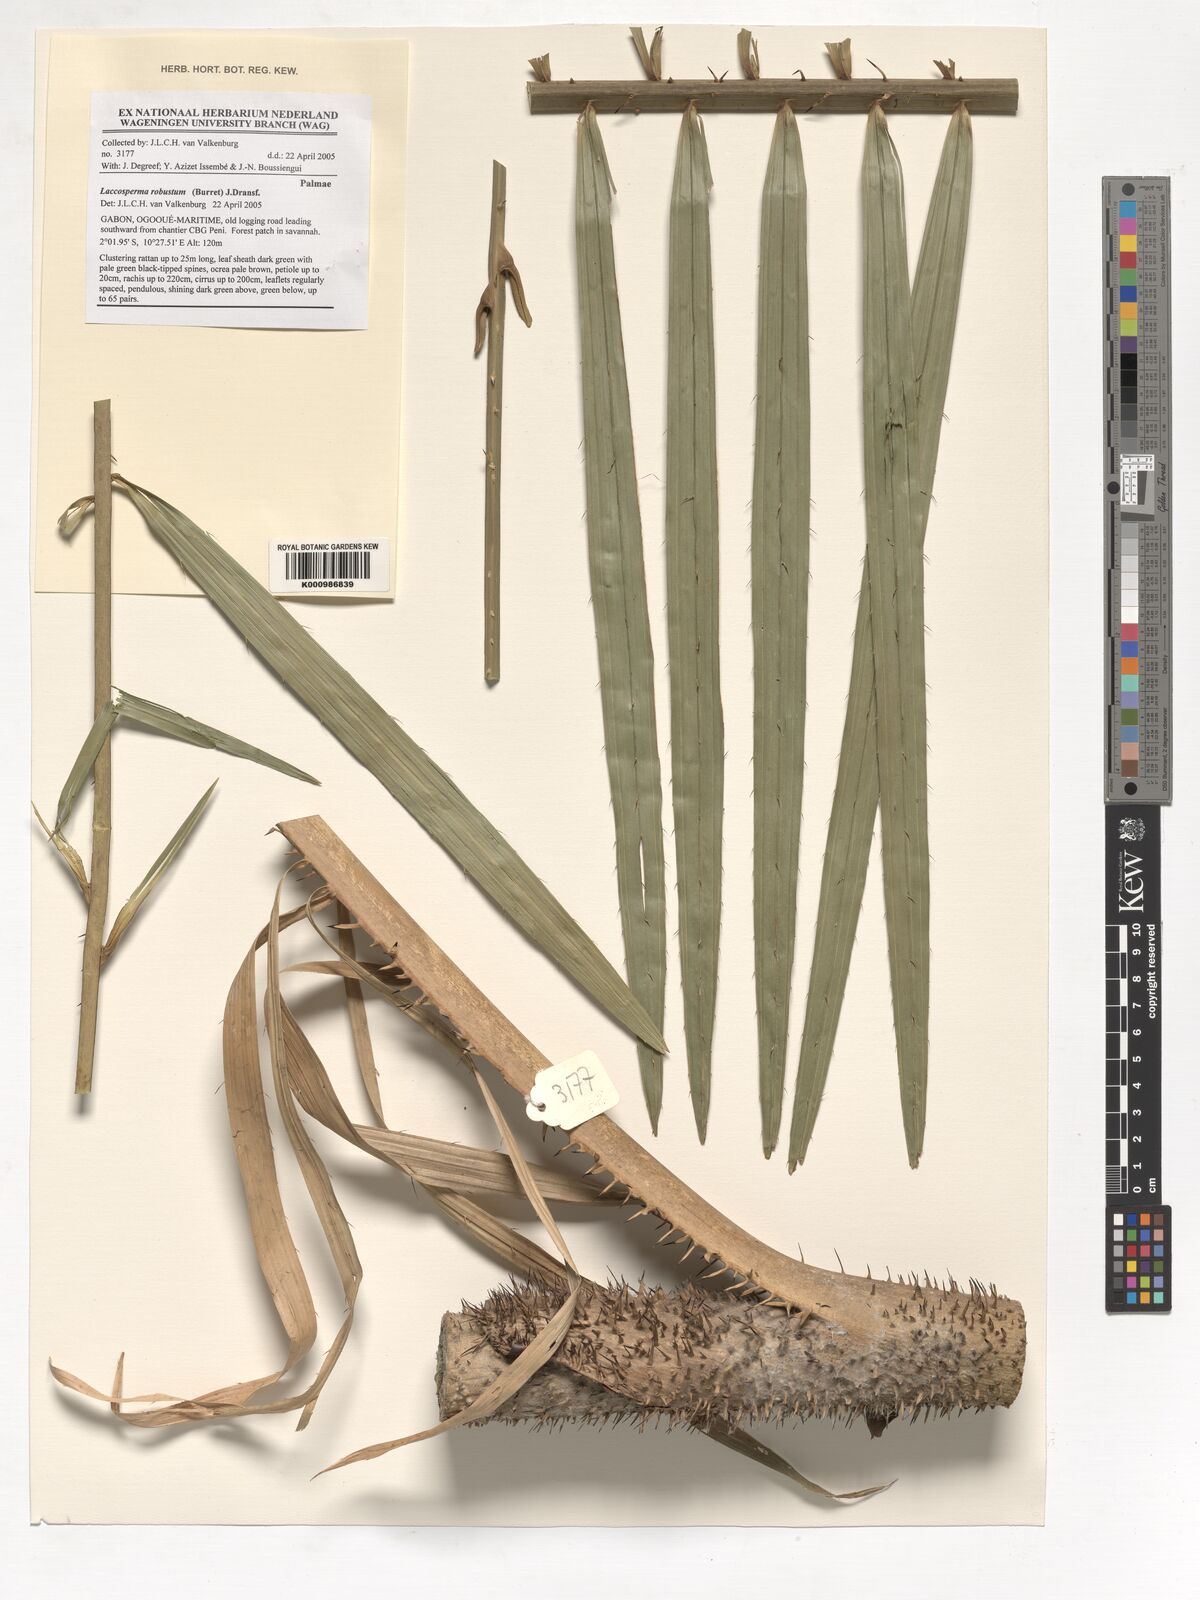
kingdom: Plantae
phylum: Tracheophyta
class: Liliopsida
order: Arecales
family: Arecaceae
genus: Laccosperma
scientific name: Laccosperma robustum
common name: Rattan
